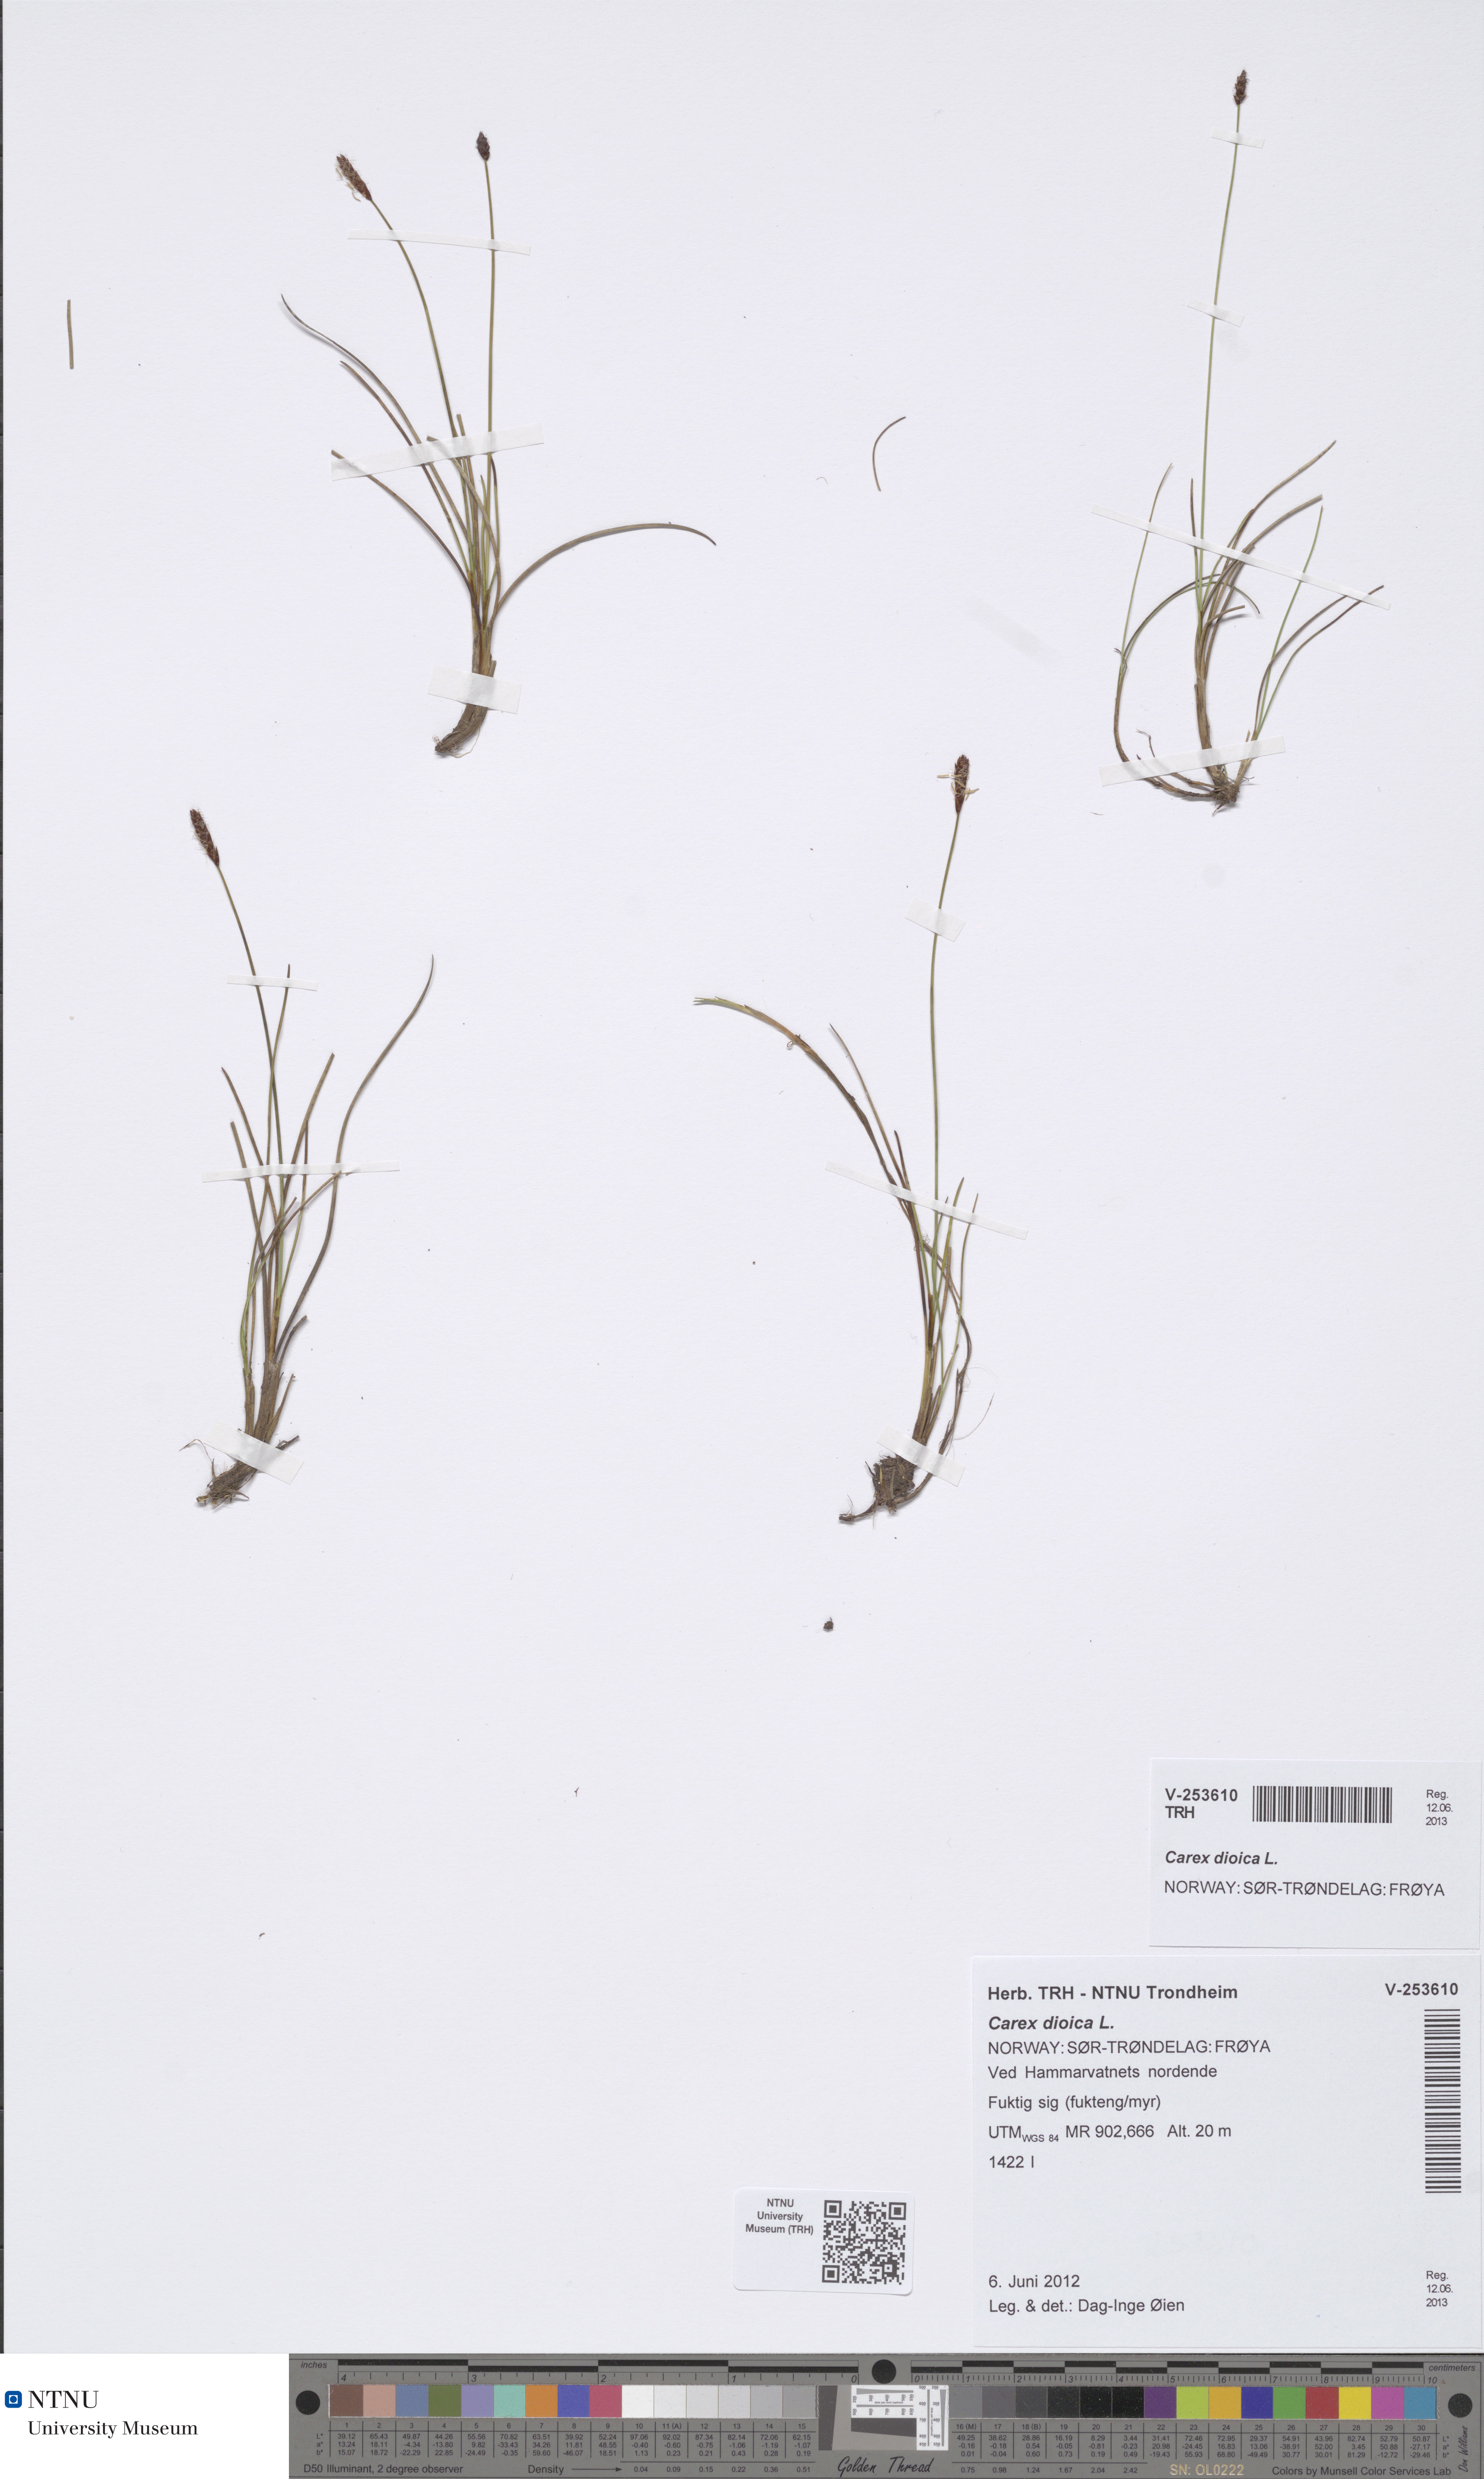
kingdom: Plantae
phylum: Tracheophyta
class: Liliopsida
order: Poales
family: Cyperaceae
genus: Carex
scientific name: Carex dioica
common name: Dioecious sedge
